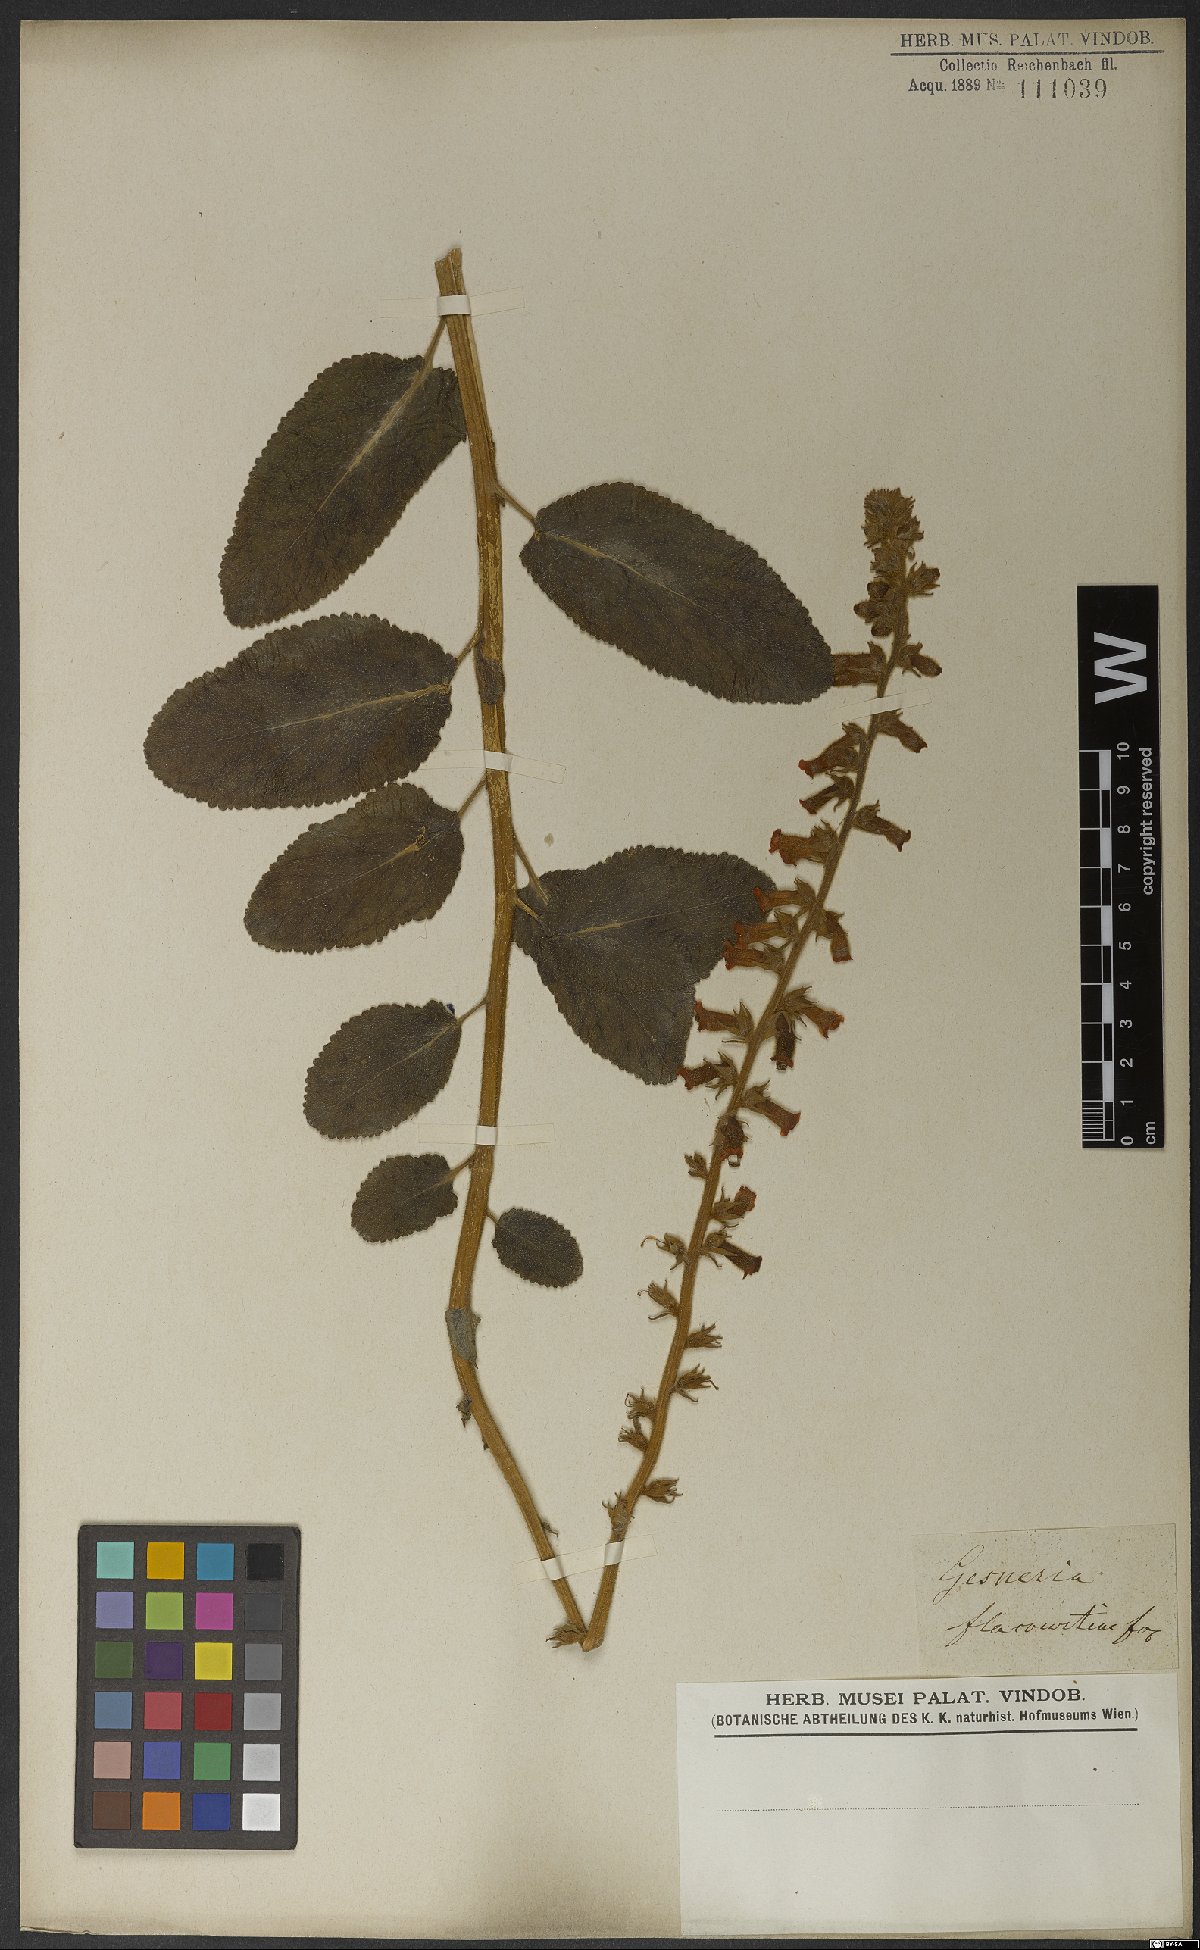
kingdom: Plantae
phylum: Tracheophyta
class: Magnoliopsida
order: Lamiales
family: Gesneriaceae
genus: Sinningia
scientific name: Sinningia allagophylla
